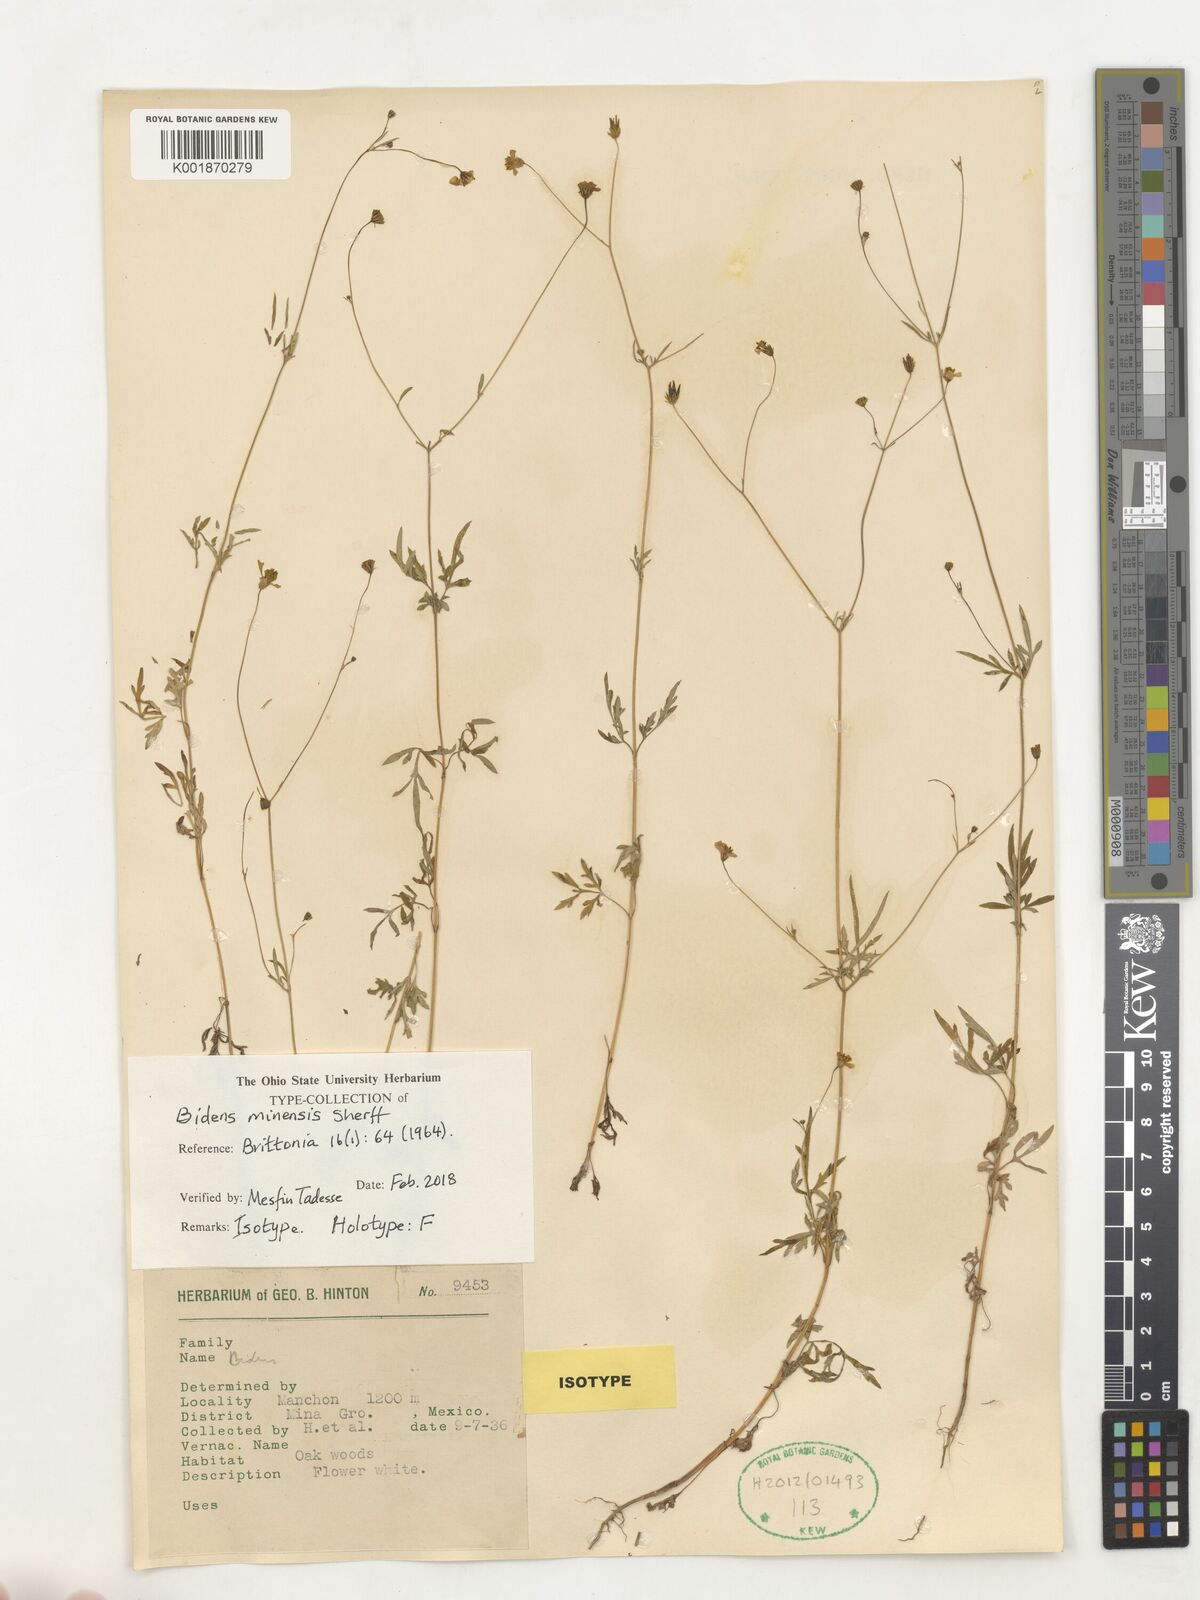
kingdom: Plantae
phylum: Tracheophyta
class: Magnoliopsida
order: Asterales
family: Asteraceae
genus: Bidens
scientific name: Bidens minensis
